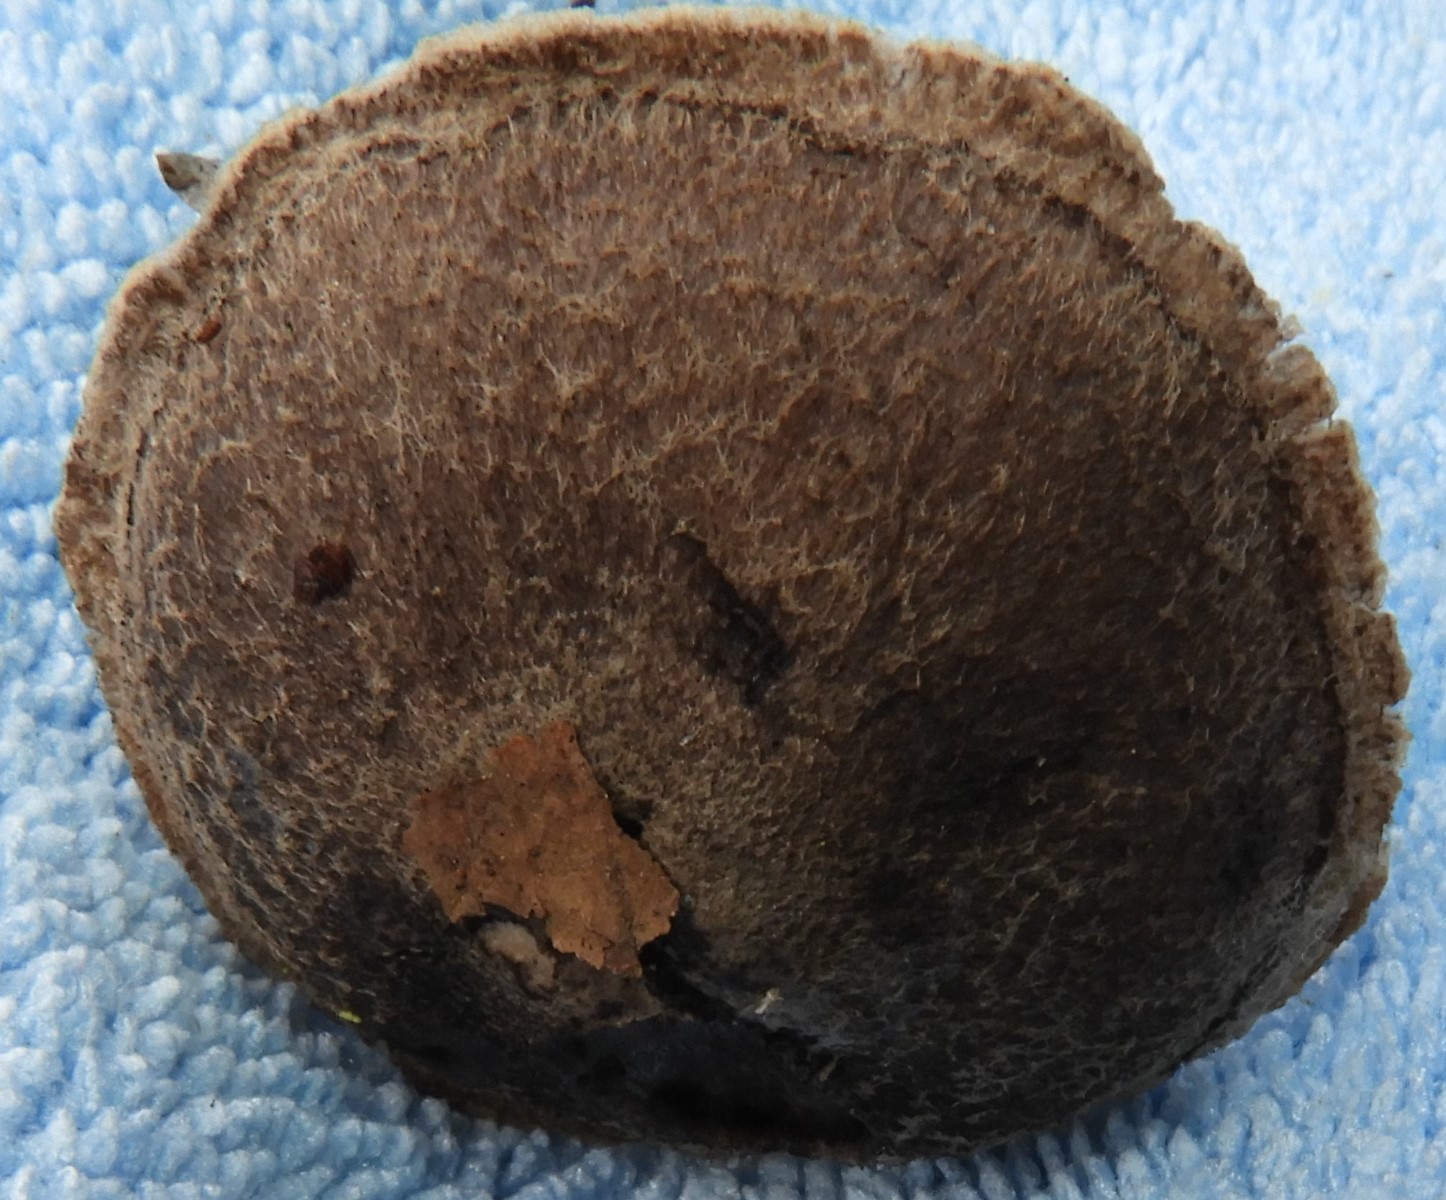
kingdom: Fungi
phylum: Basidiomycota
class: Agaricomycetes
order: Agaricales
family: Tricholomataceae
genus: Tricholoma
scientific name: Tricholoma
